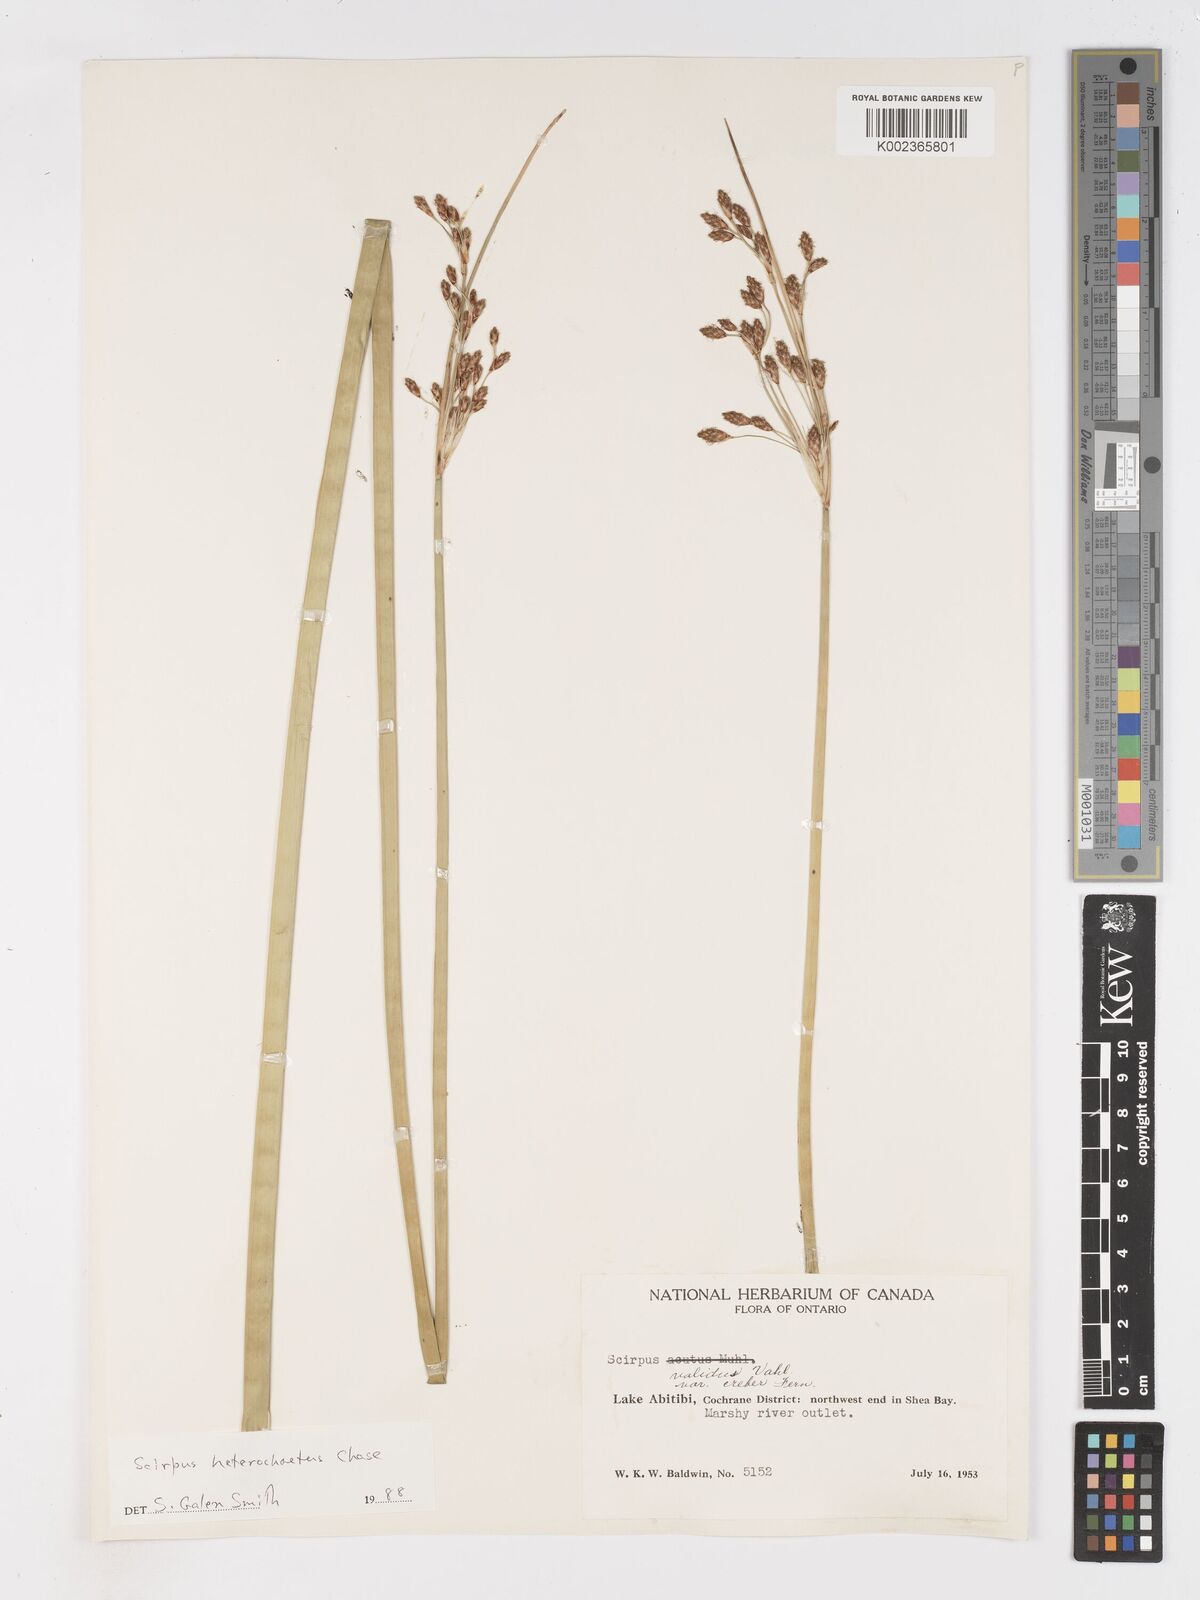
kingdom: Plantae
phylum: Tracheophyta
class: Liliopsida
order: Poales
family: Cyperaceae
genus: Schoenoplectus
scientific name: Schoenoplectus heterochaetus
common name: Pale great bulrush
